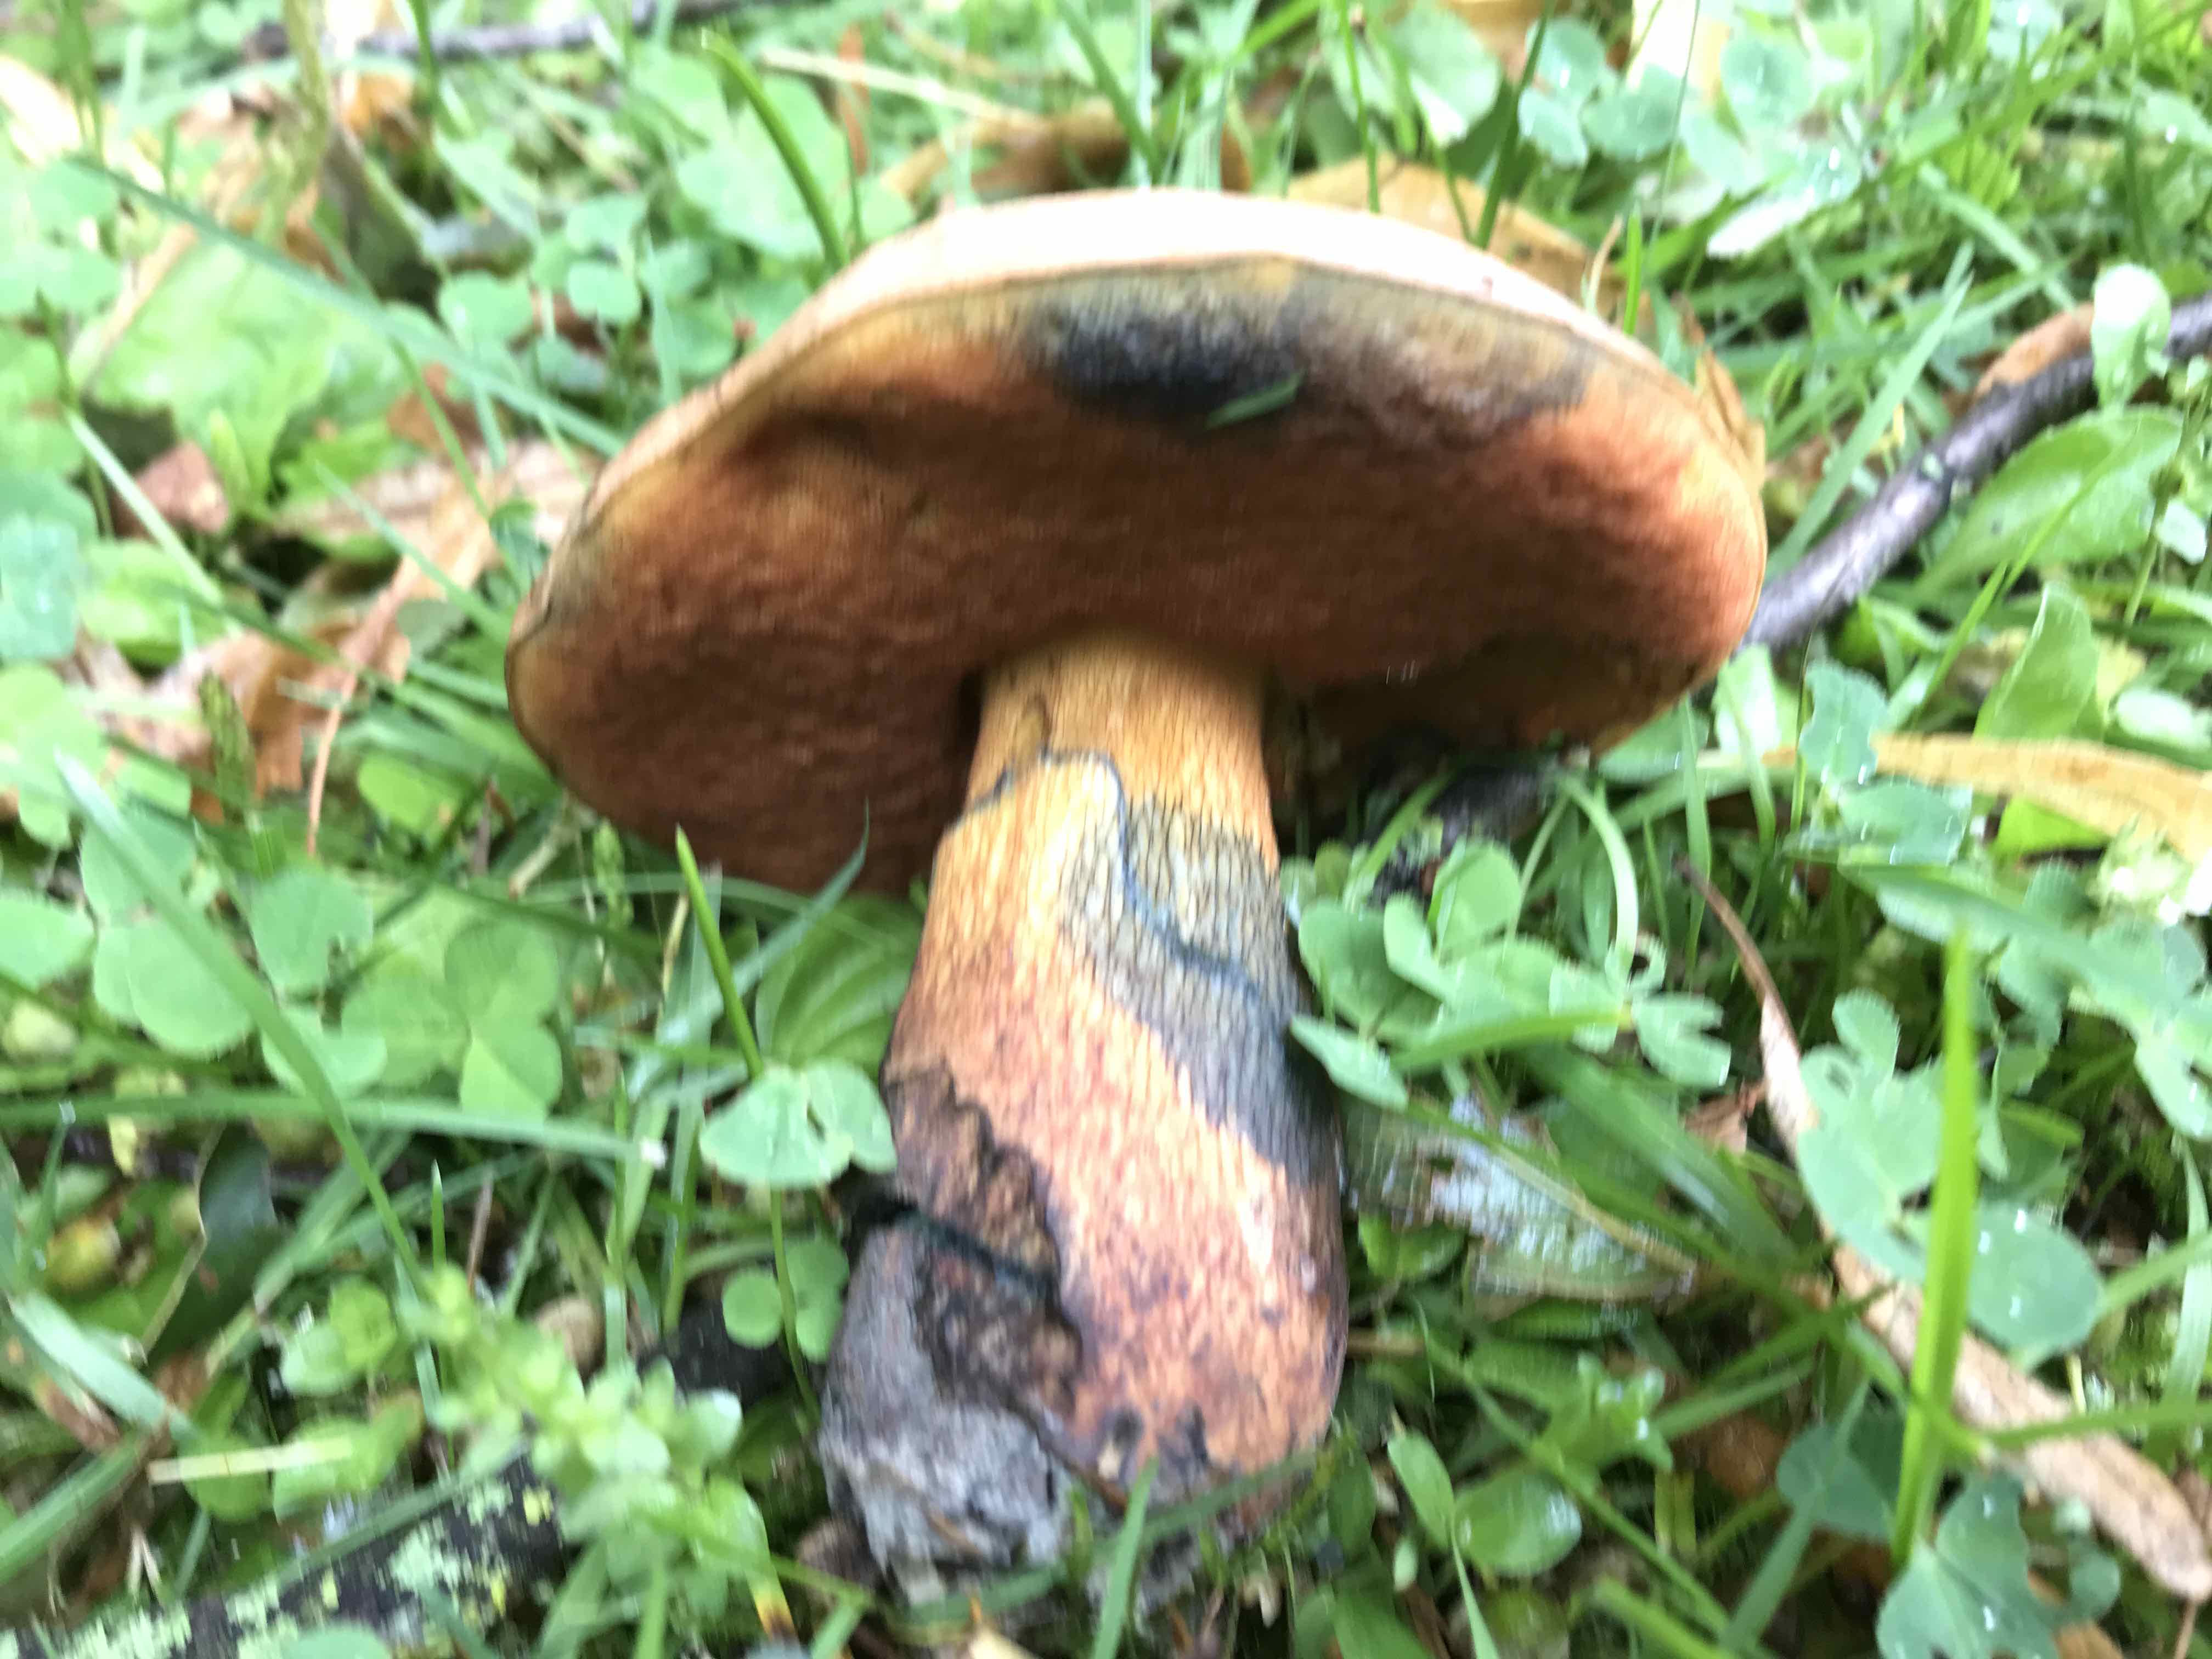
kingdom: Fungi
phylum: Basidiomycota
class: Agaricomycetes
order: Boletales
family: Boletaceae
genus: Suillellus
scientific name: Suillellus luridus
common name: netstokket indigorørhat
